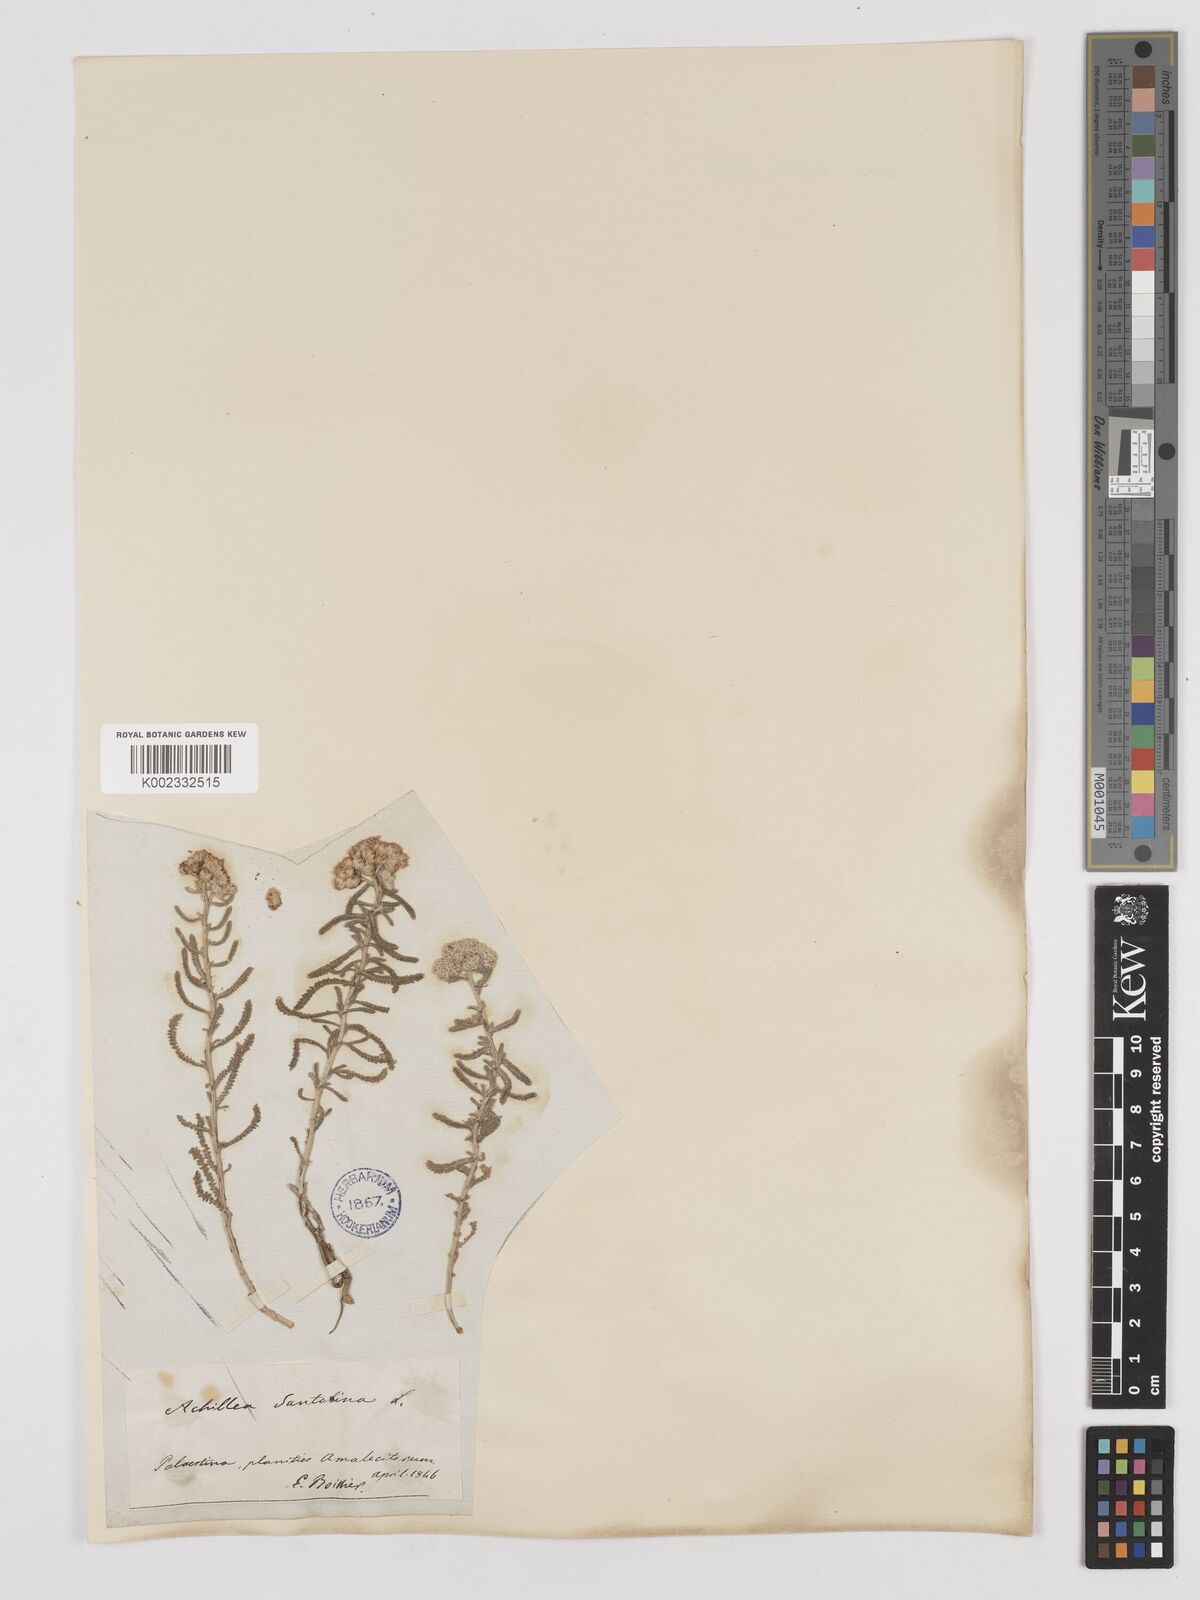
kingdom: Plantae
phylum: Tracheophyta
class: Magnoliopsida
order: Asterales
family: Asteraceae
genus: Achillea
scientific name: Achillea tenuifolia
